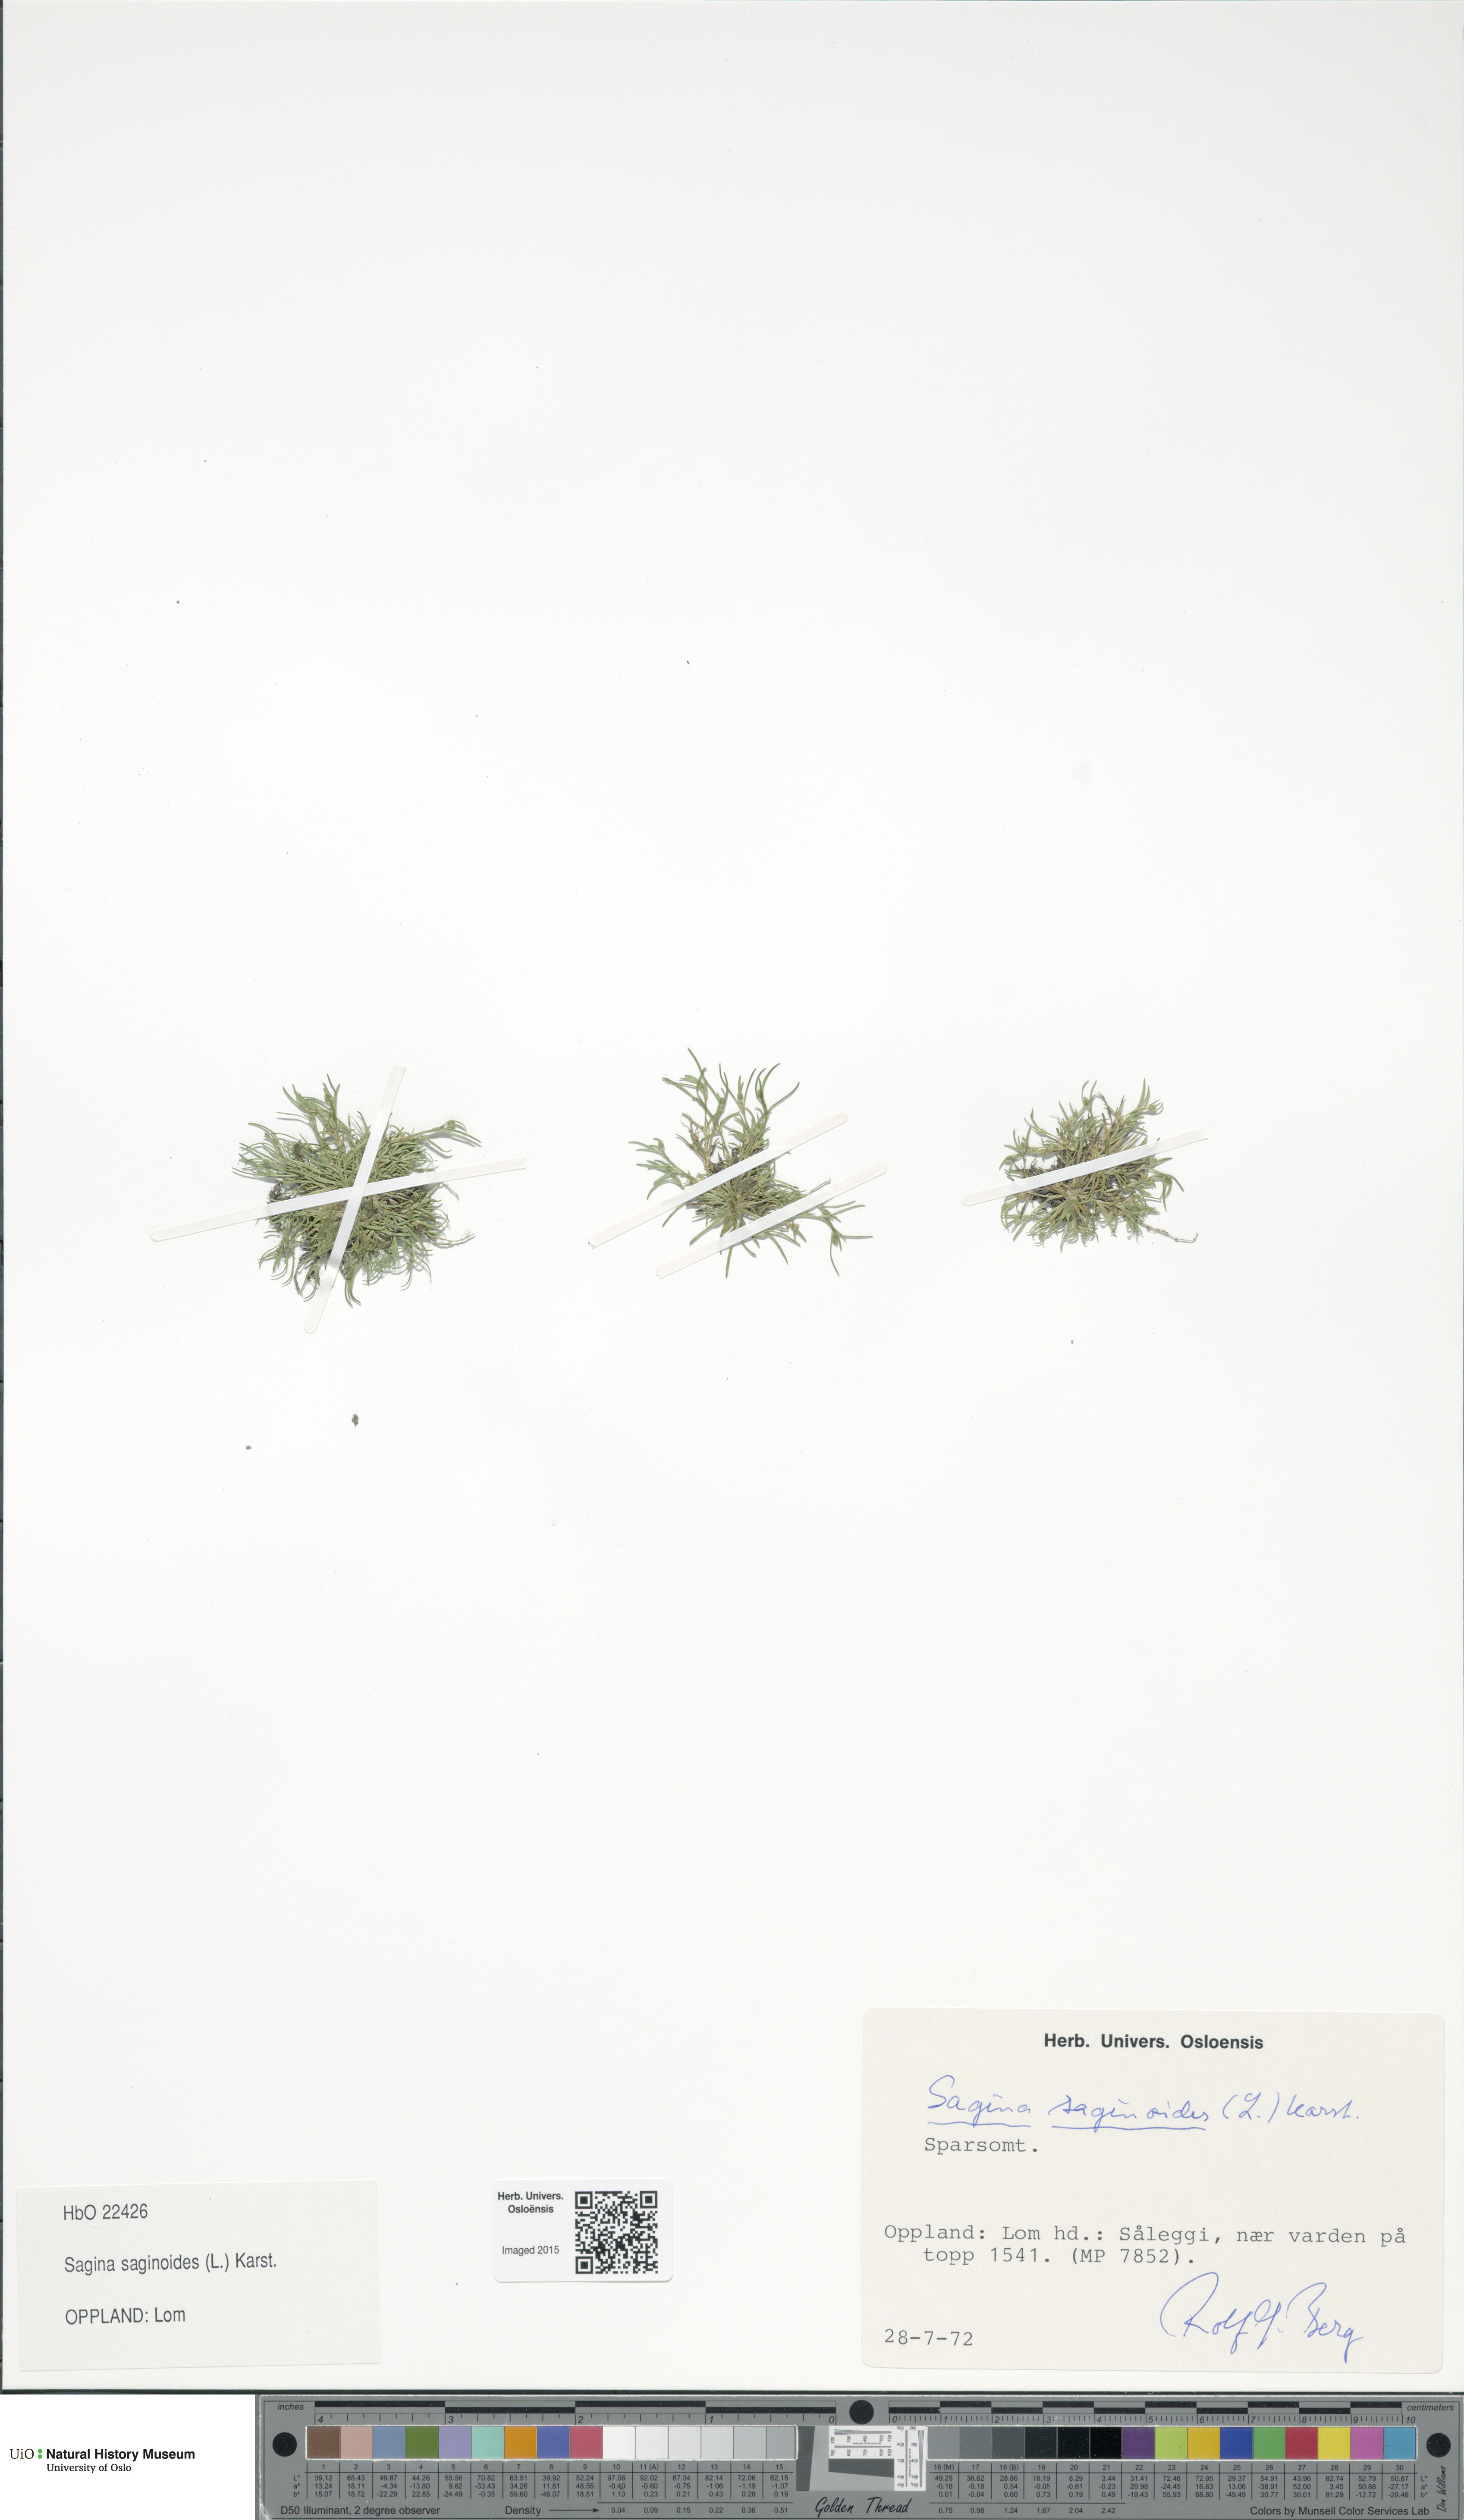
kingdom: Plantae
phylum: Tracheophyta
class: Magnoliopsida
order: Caryophyllales
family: Caryophyllaceae
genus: Sagina
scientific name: Sagina saginoides
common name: Alpine pearlwort
